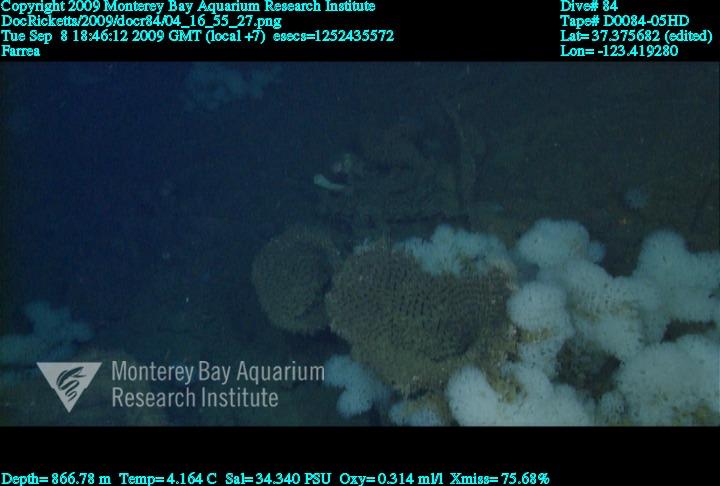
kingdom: Animalia
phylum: Porifera
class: Hexactinellida
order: Sceptrulophora
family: Farreidae
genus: Farrea
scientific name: Farrea
